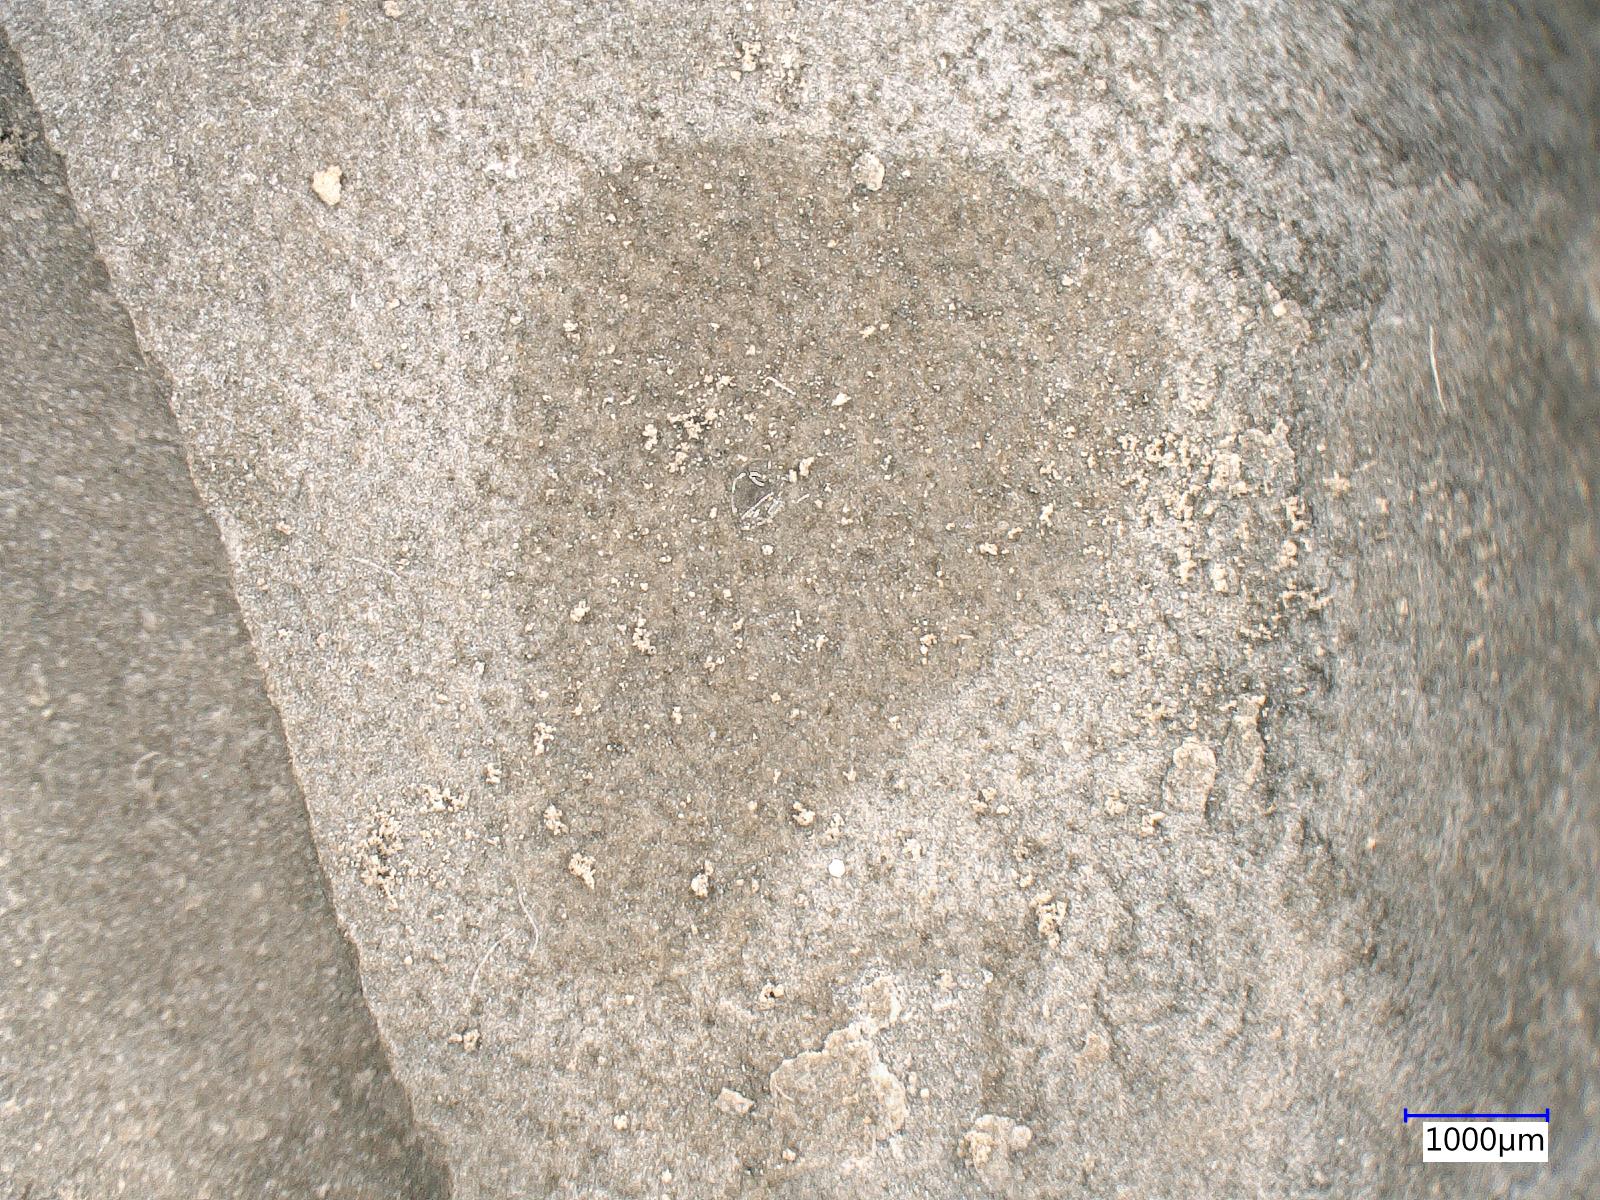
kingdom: Animalia
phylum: Arthropoda
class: Insecta
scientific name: Insecta
